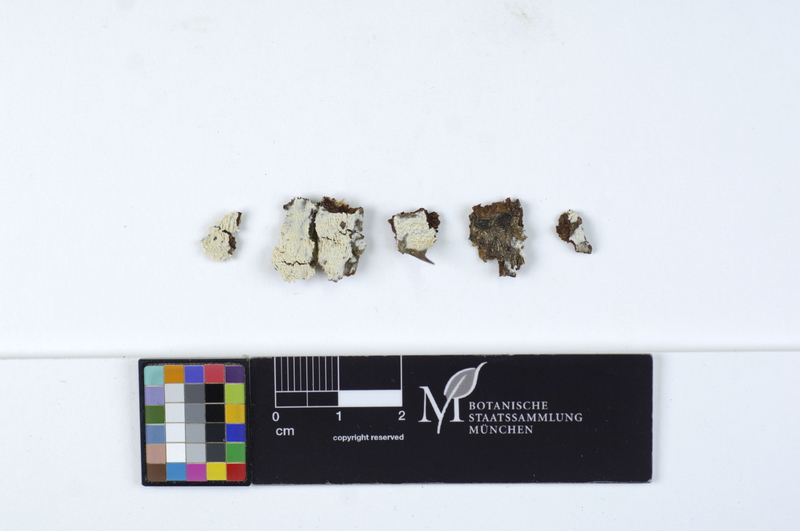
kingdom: Fungi
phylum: Basidiomycota
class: Agaricomycetes
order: Hymenochaetales
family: Schizoporaceae
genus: Fibrodontia
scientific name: Fibrodontia gossypina
